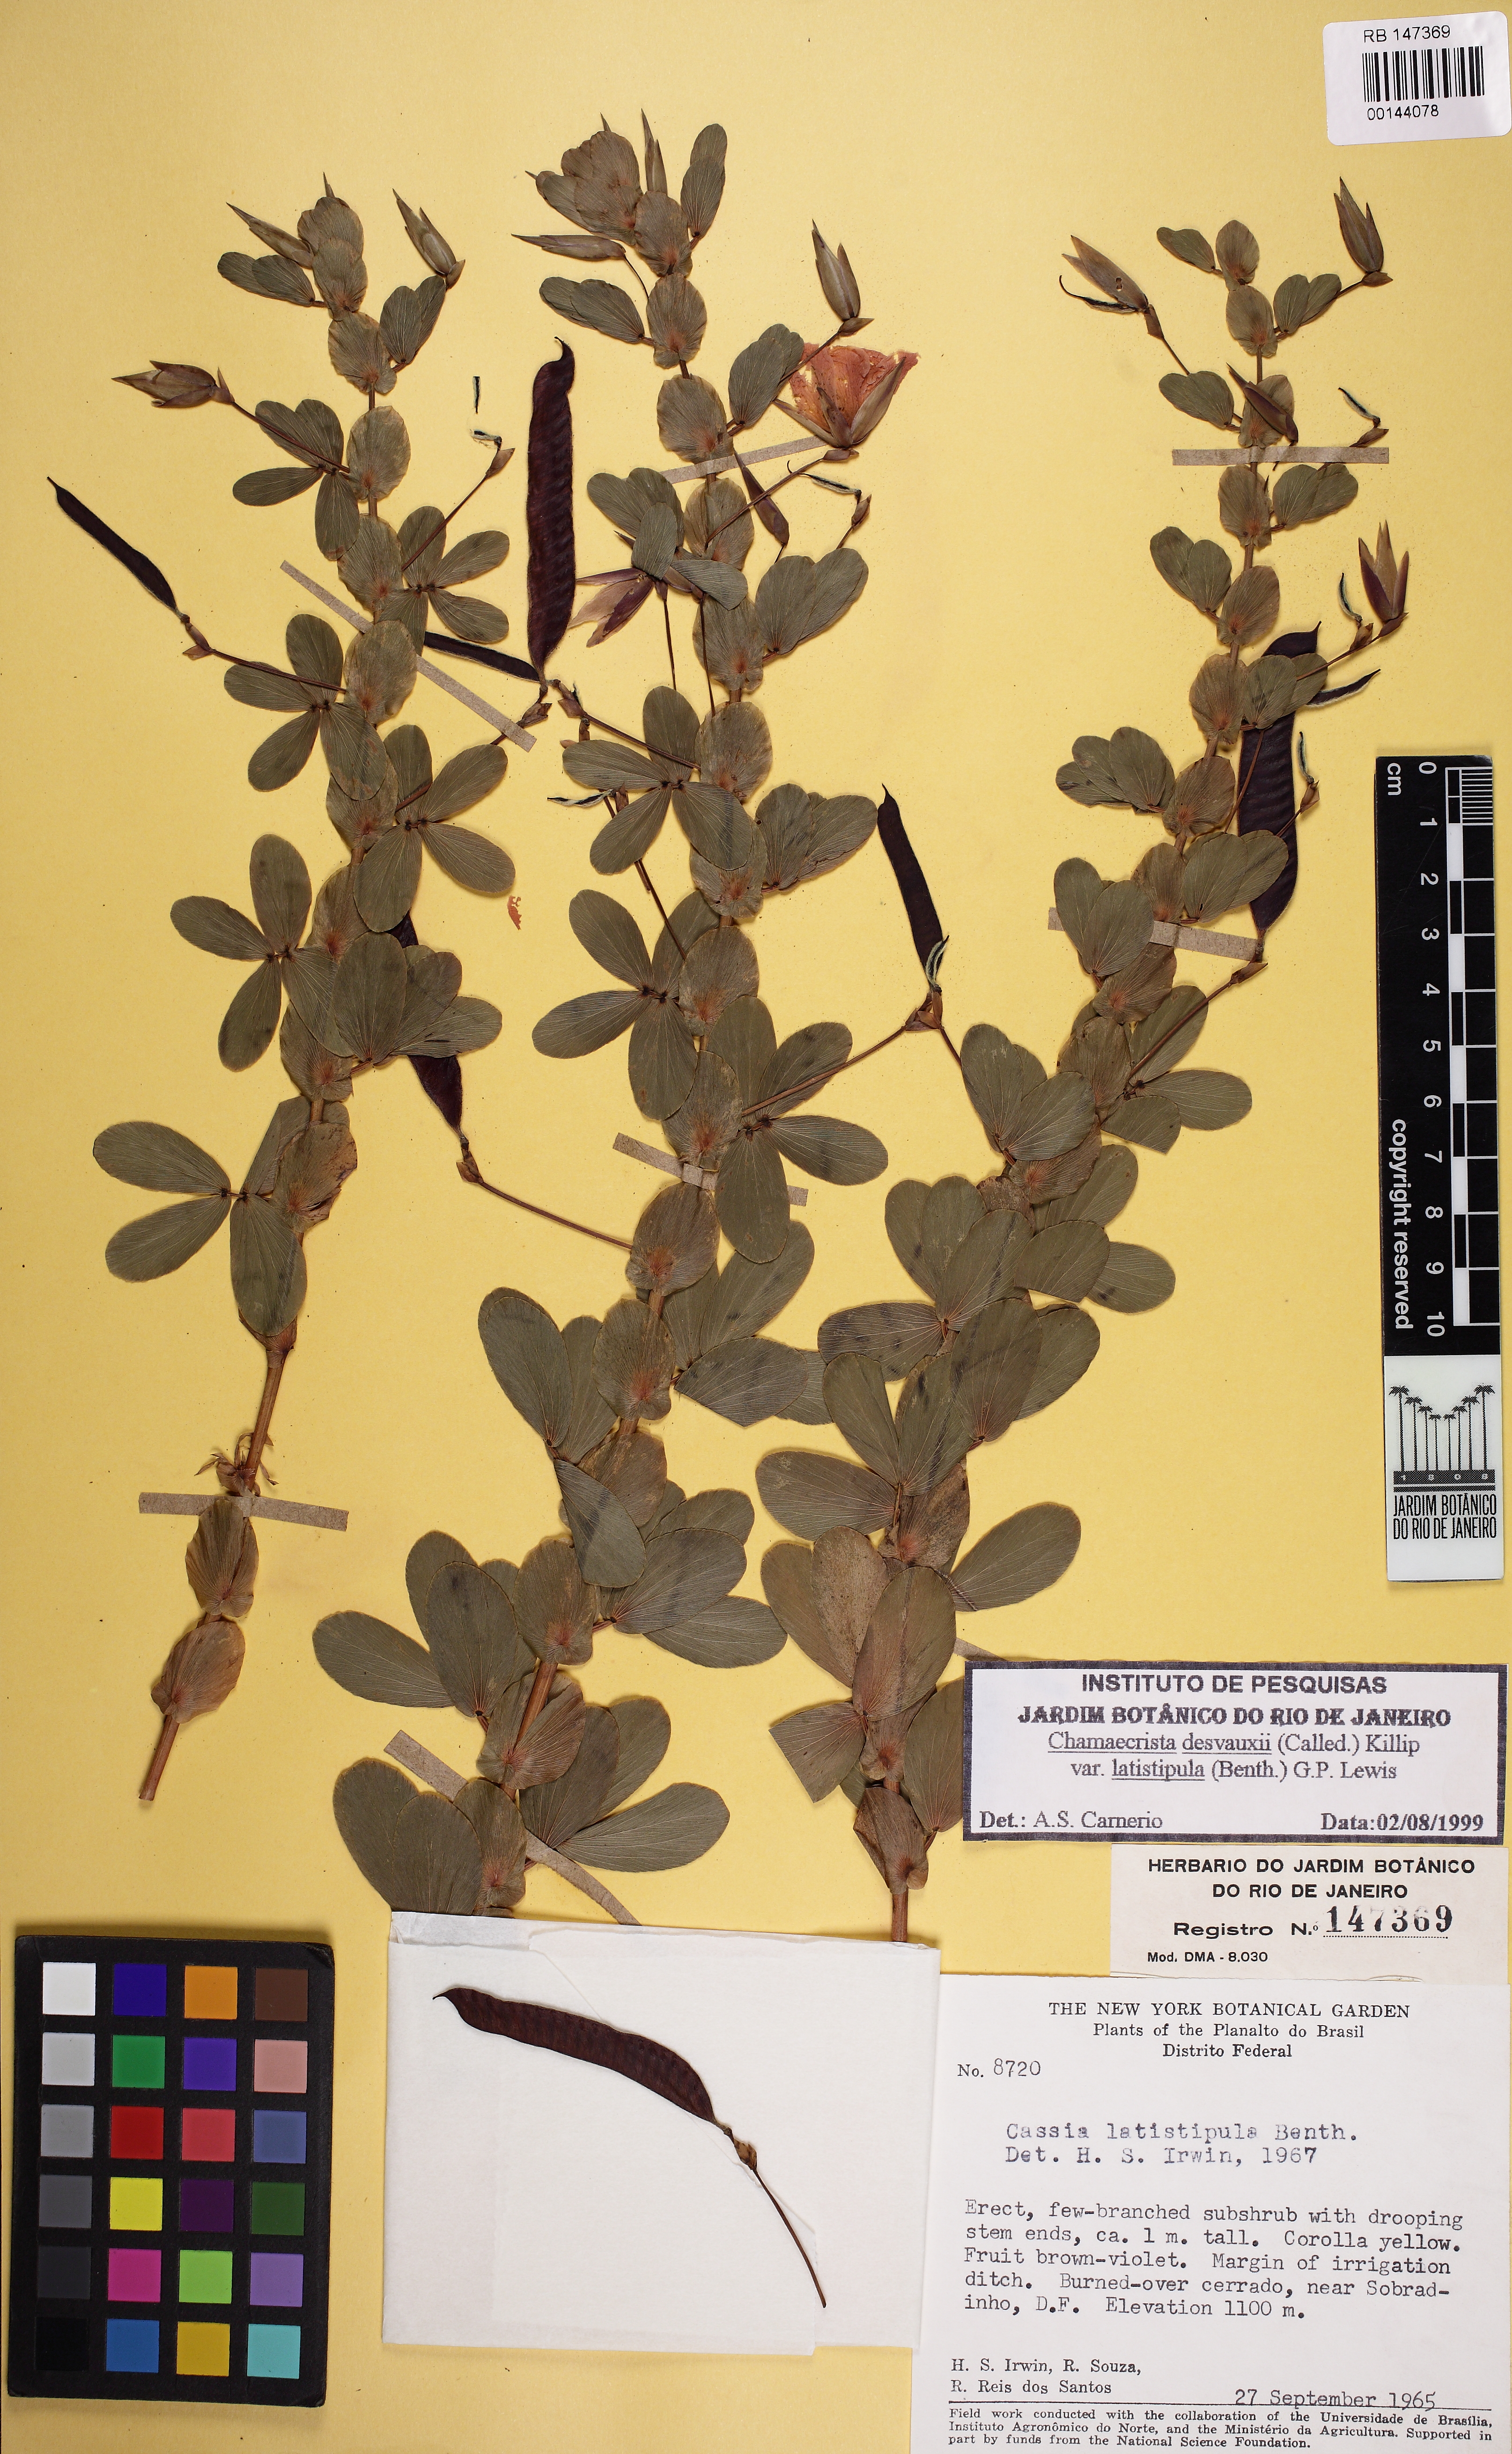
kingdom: Plantae
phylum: Tracheophyta
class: Magnoliopsida
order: Fabales
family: Fabaceae
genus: Chamaecrista
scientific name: Chamaecrista desvauxii
